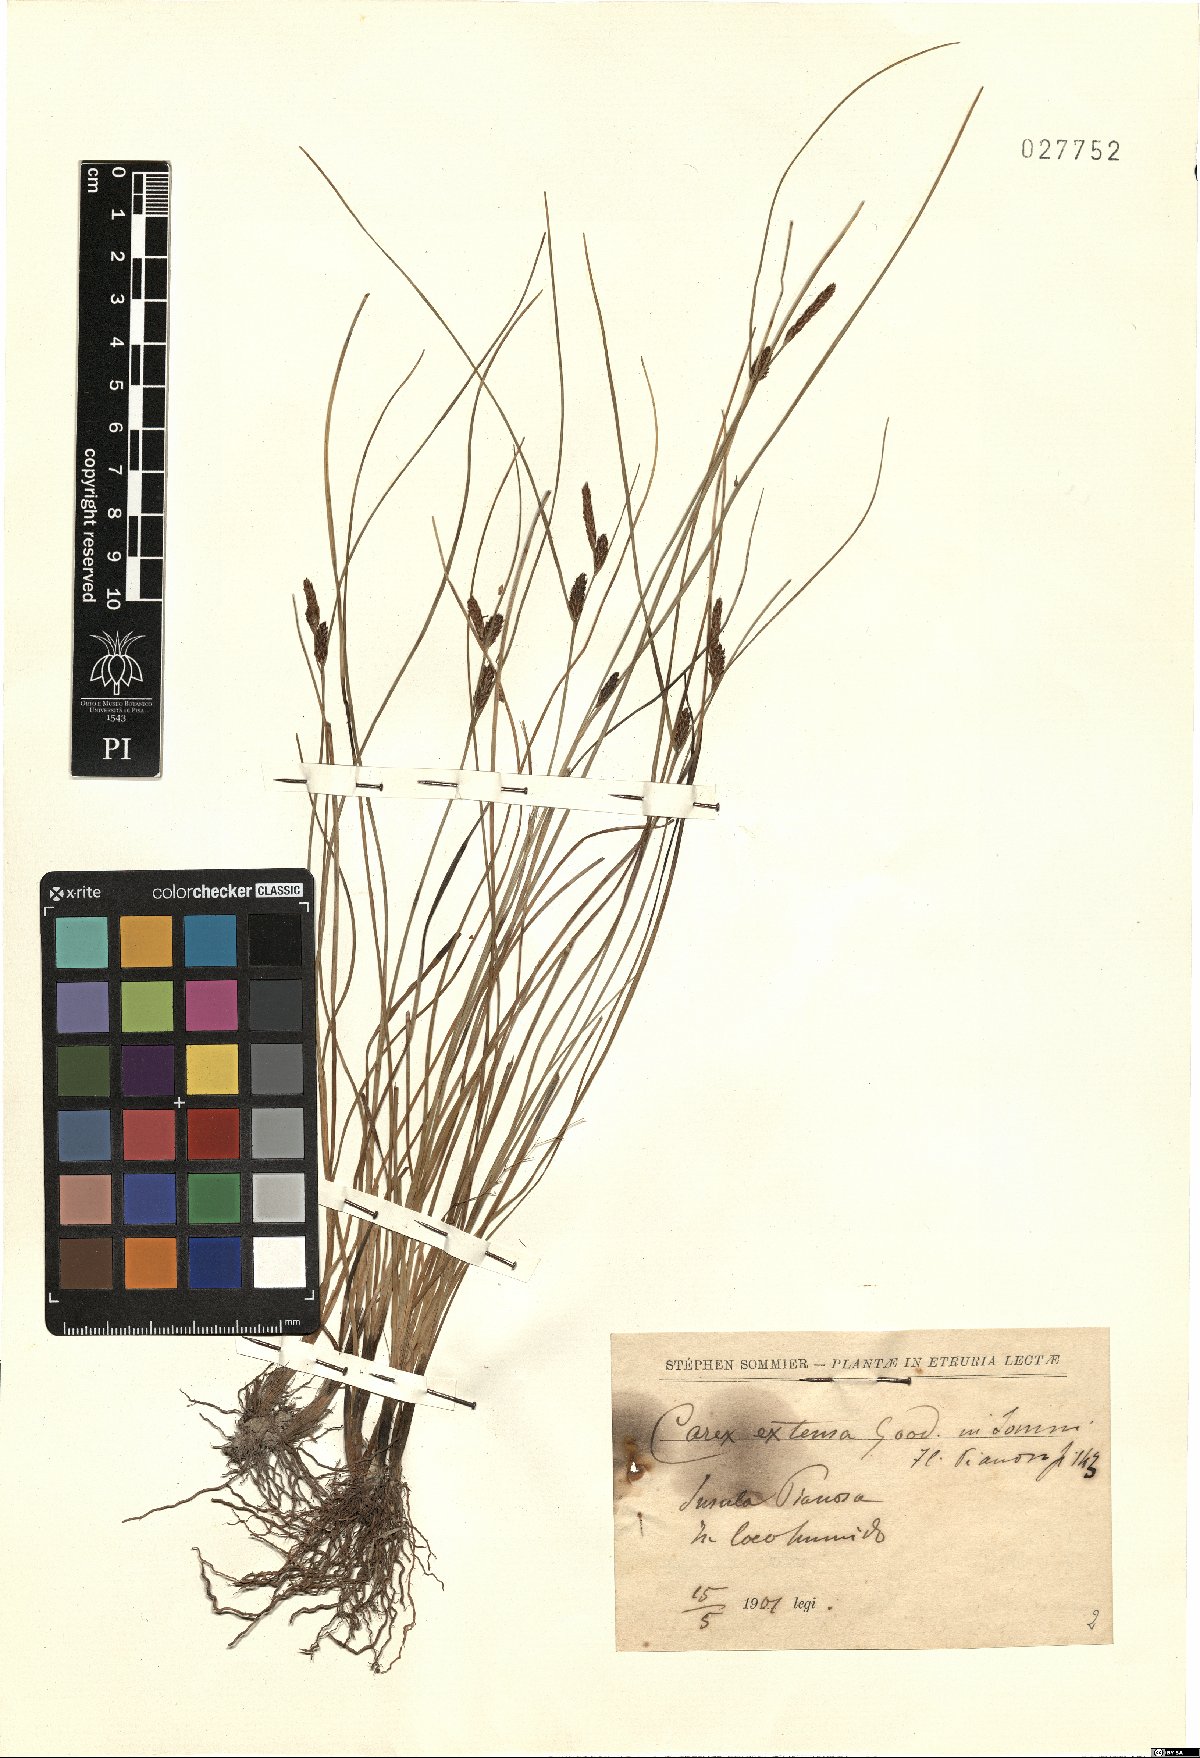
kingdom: Plantae
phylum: Tracheophyta
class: Liliopsida
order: Poales
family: Cyperaceae
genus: Carex
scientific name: Carex extensa
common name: Long-bracted sedge
